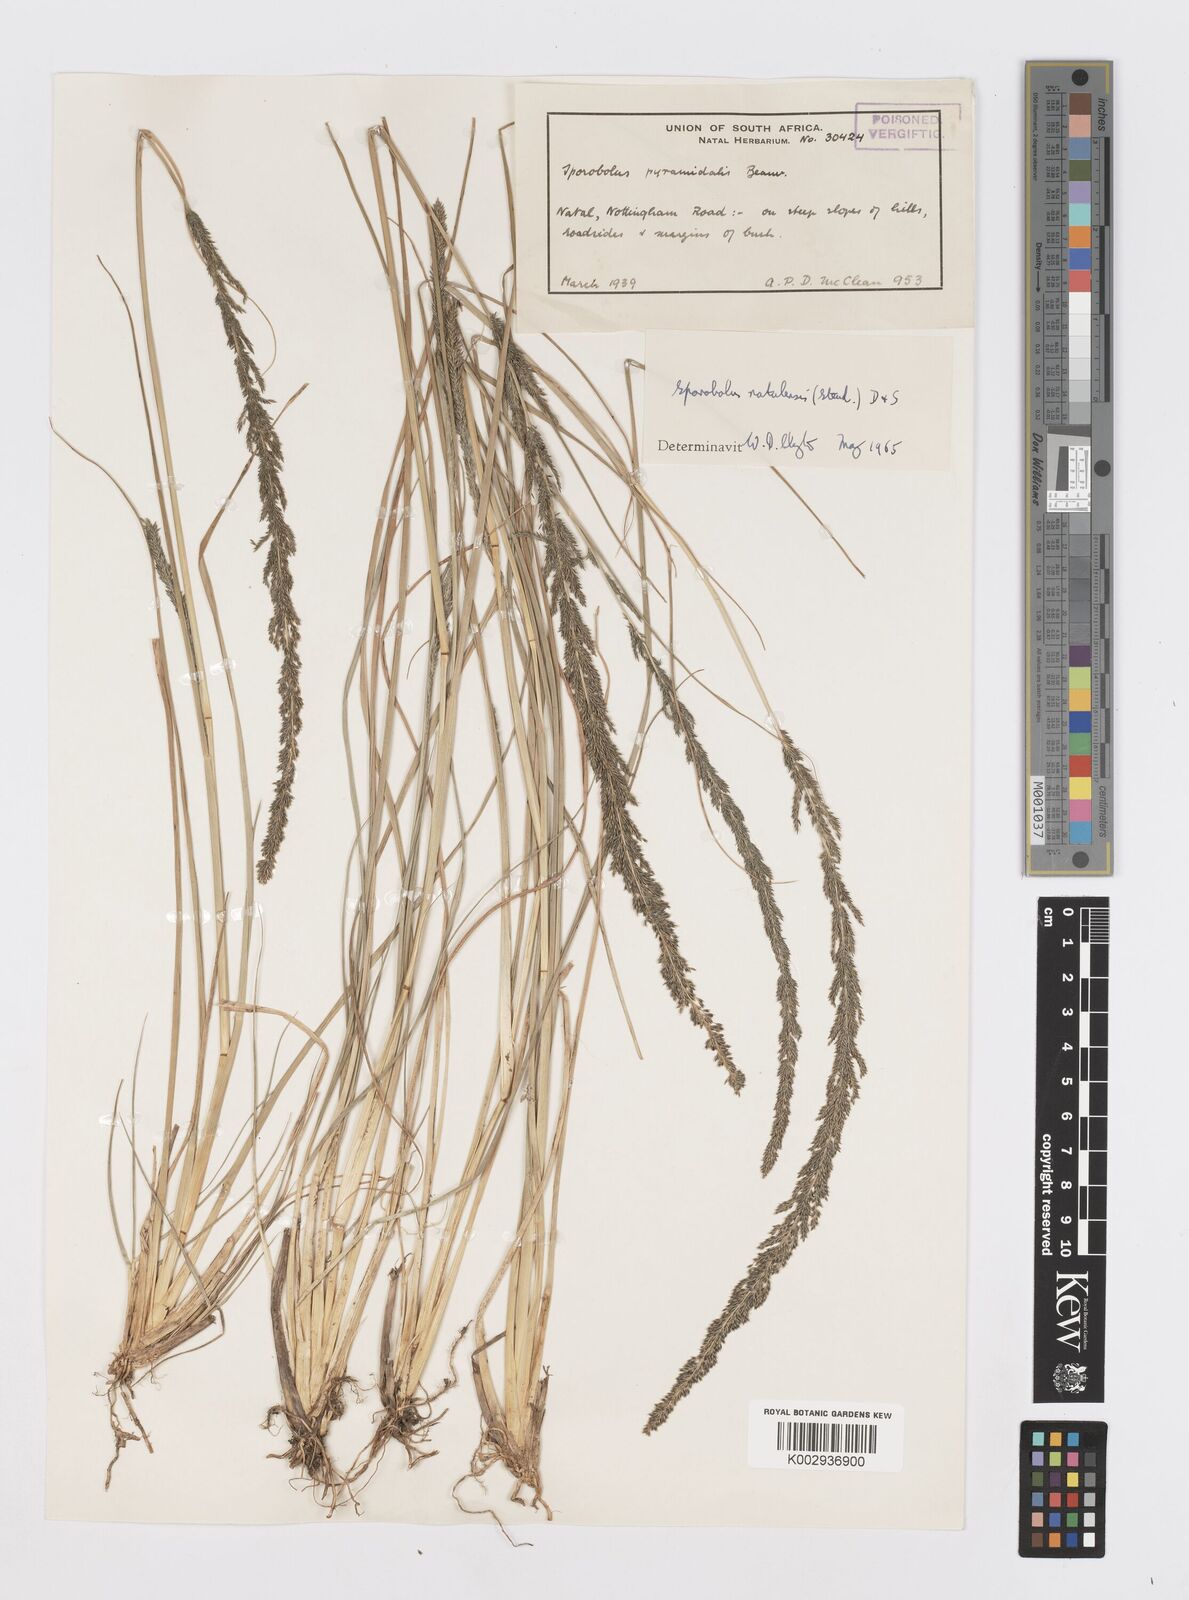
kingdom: Plantae
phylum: Tracheophyta
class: Liliopsida
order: Poales
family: Poaceae
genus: Sporobolus
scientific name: Sporobolus natalensis
